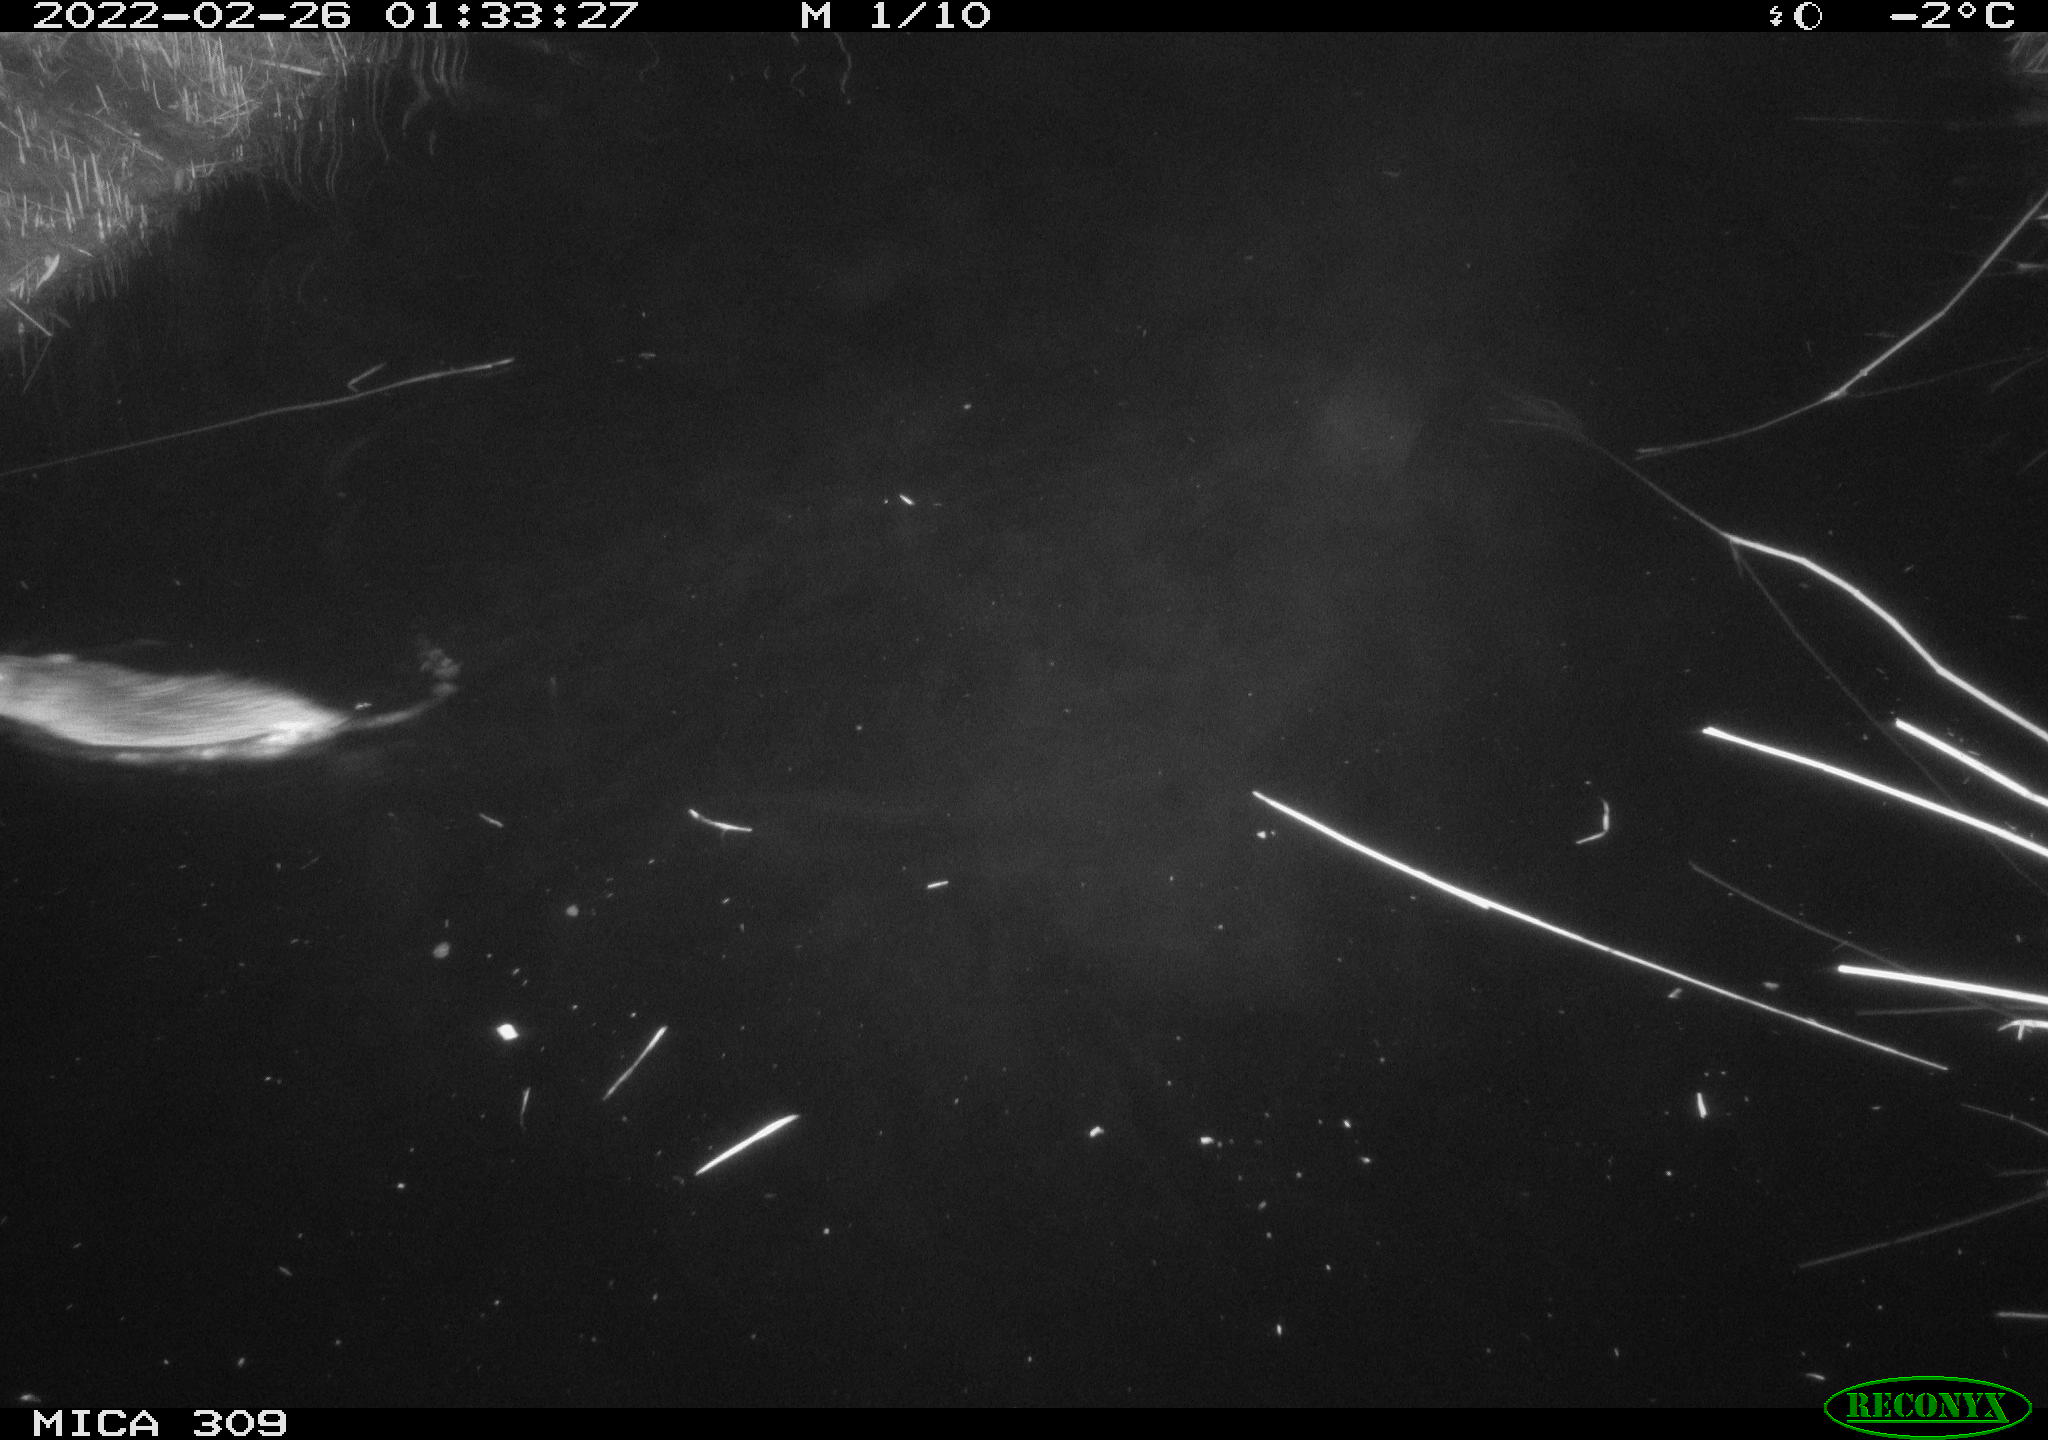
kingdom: Animalia
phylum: Chordata
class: Mammalia
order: Rodentia
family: Muridae
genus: Rattus
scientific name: Rattus norvegicus
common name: Brown rat
